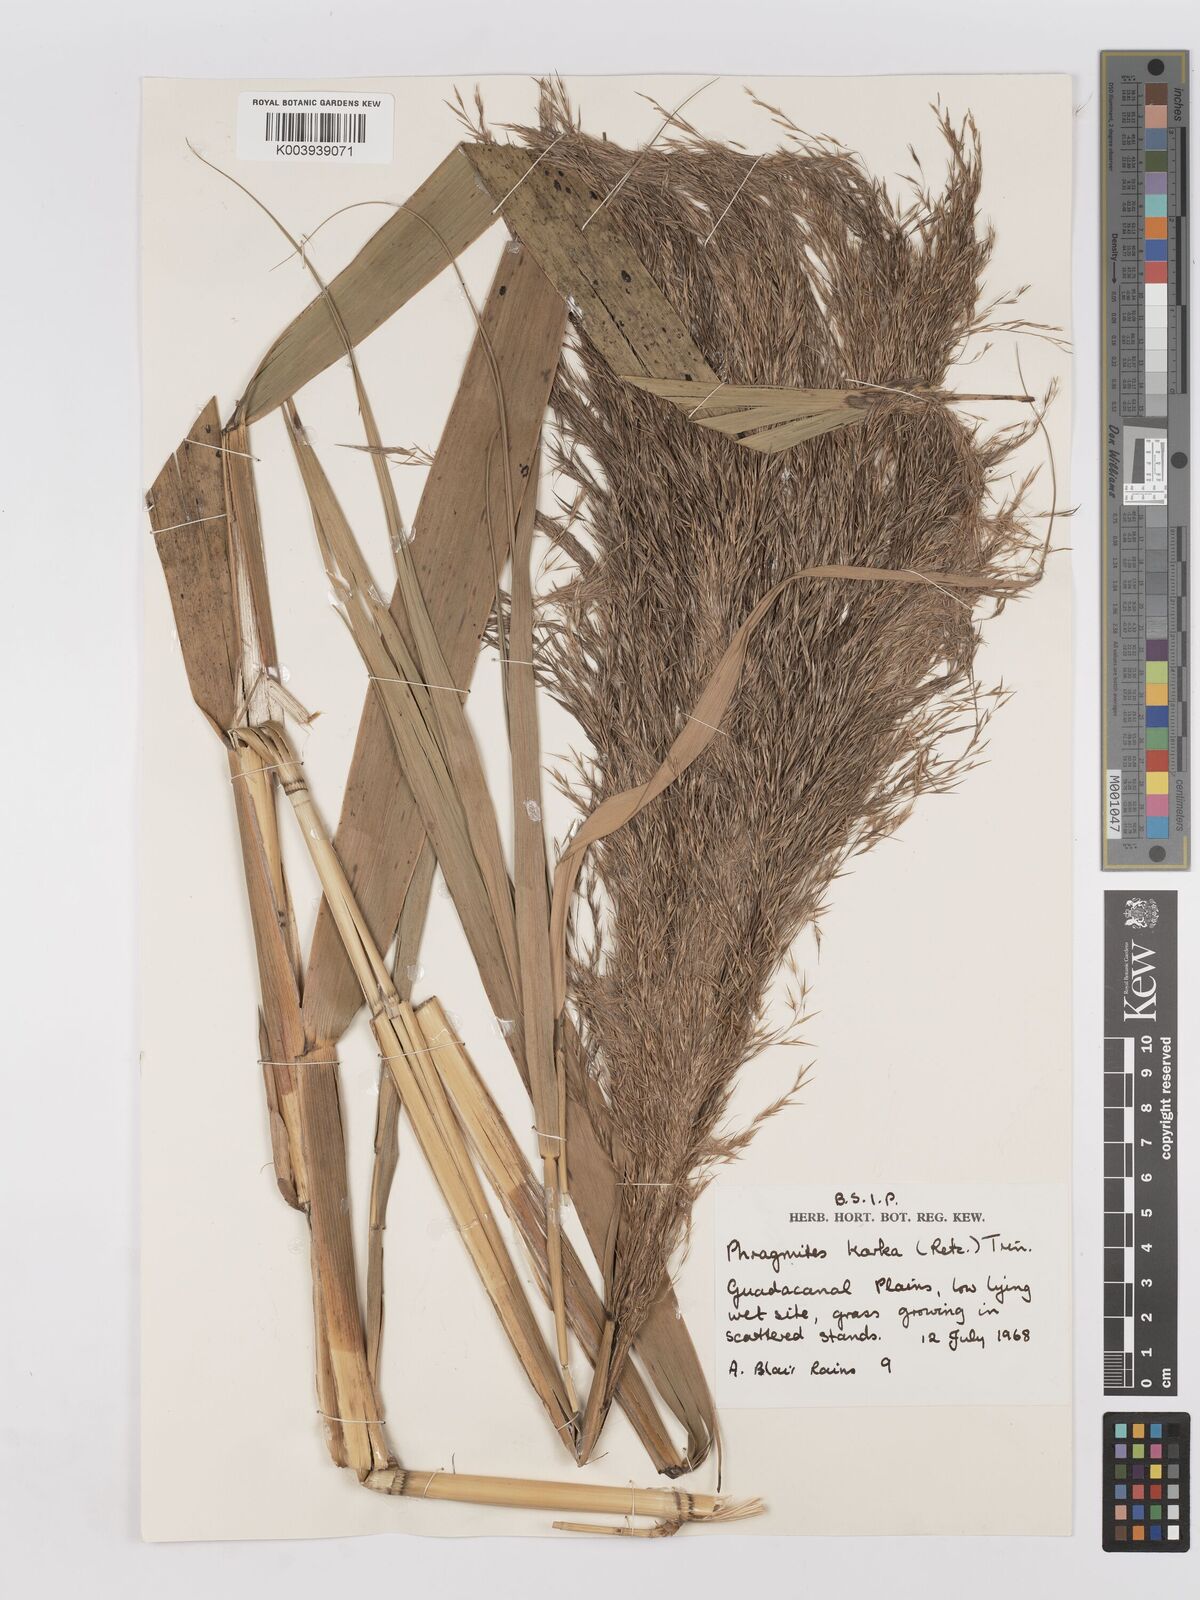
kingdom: Plantae
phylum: Tracheophyta
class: Liliopsida
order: Poales
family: Poaceae
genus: Phragmites
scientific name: Phragmites karka
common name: Tropical reed
